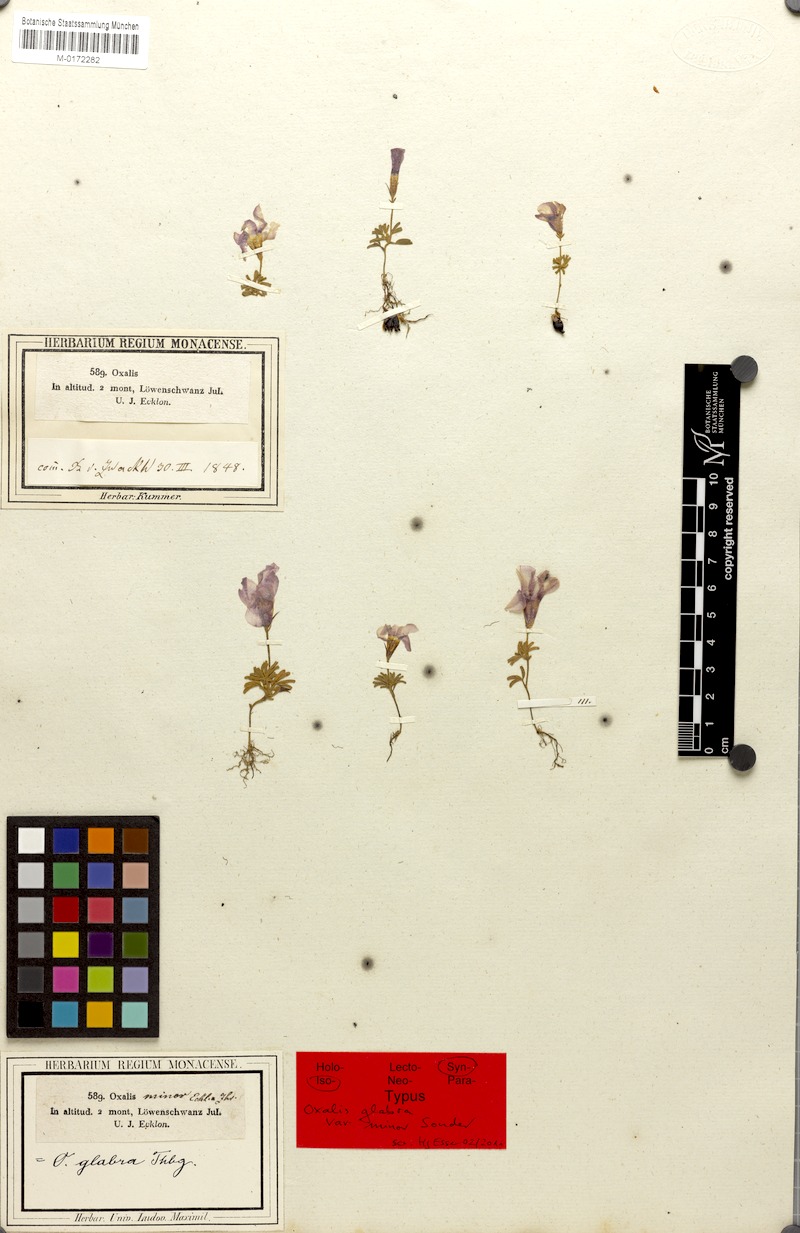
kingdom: Plantae
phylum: Tracheophyta
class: Magnoliopsida
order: Oxalidales
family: Oxalidaceae
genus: Oxalis
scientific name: Oxalis glabra
